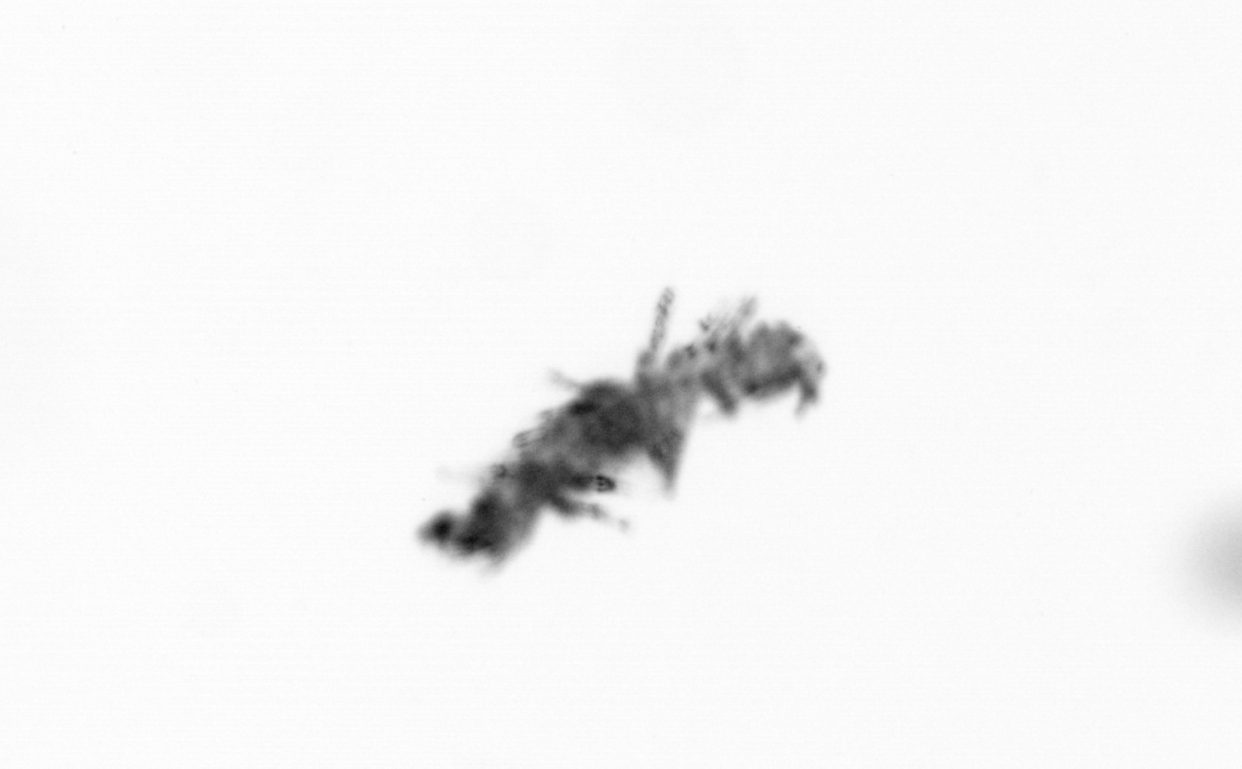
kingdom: Animalia
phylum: Annelida
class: Polychaeta
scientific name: Polychaeta
